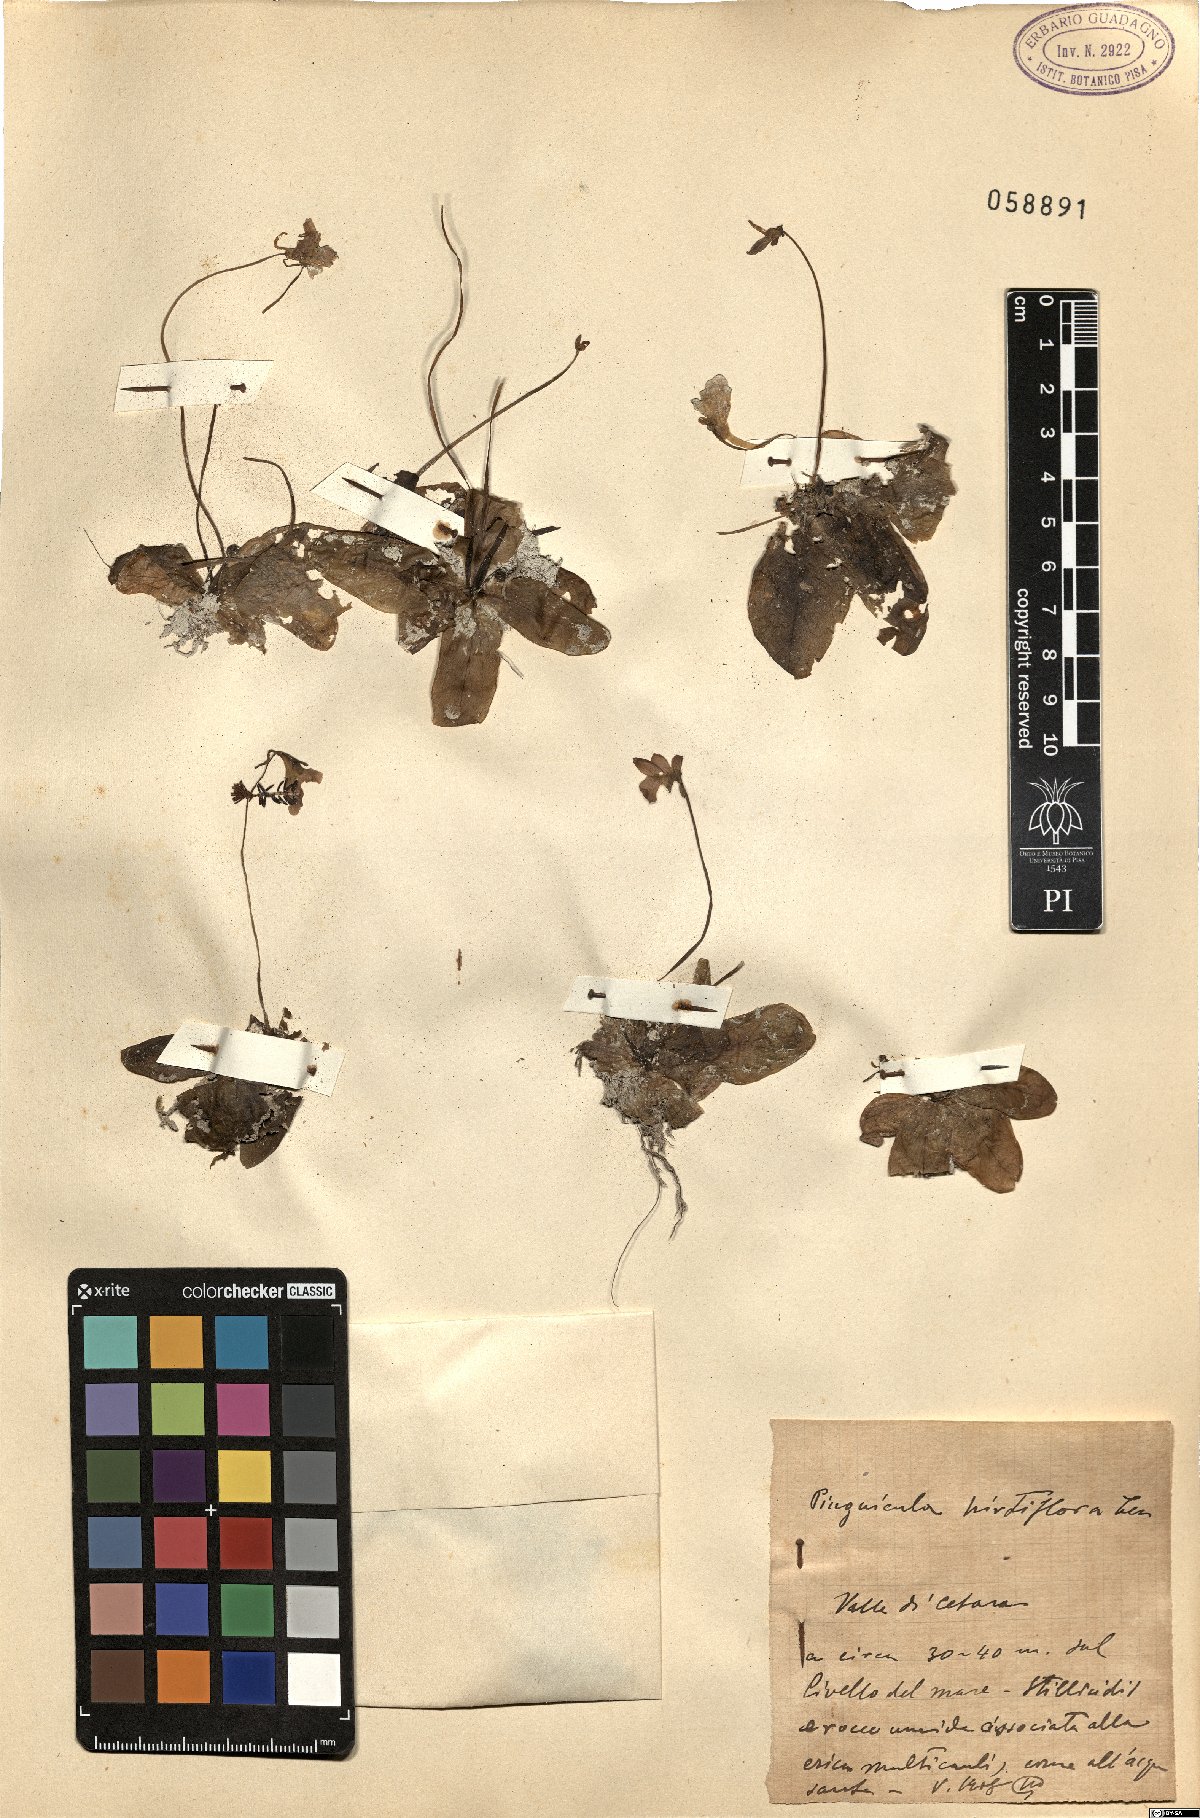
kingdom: Plantae
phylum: Tracheophyta
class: Magnoliopsida
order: Lamiales
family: Lentibulariaceae
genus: Pinguicula
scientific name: Pinguicula crystallina
